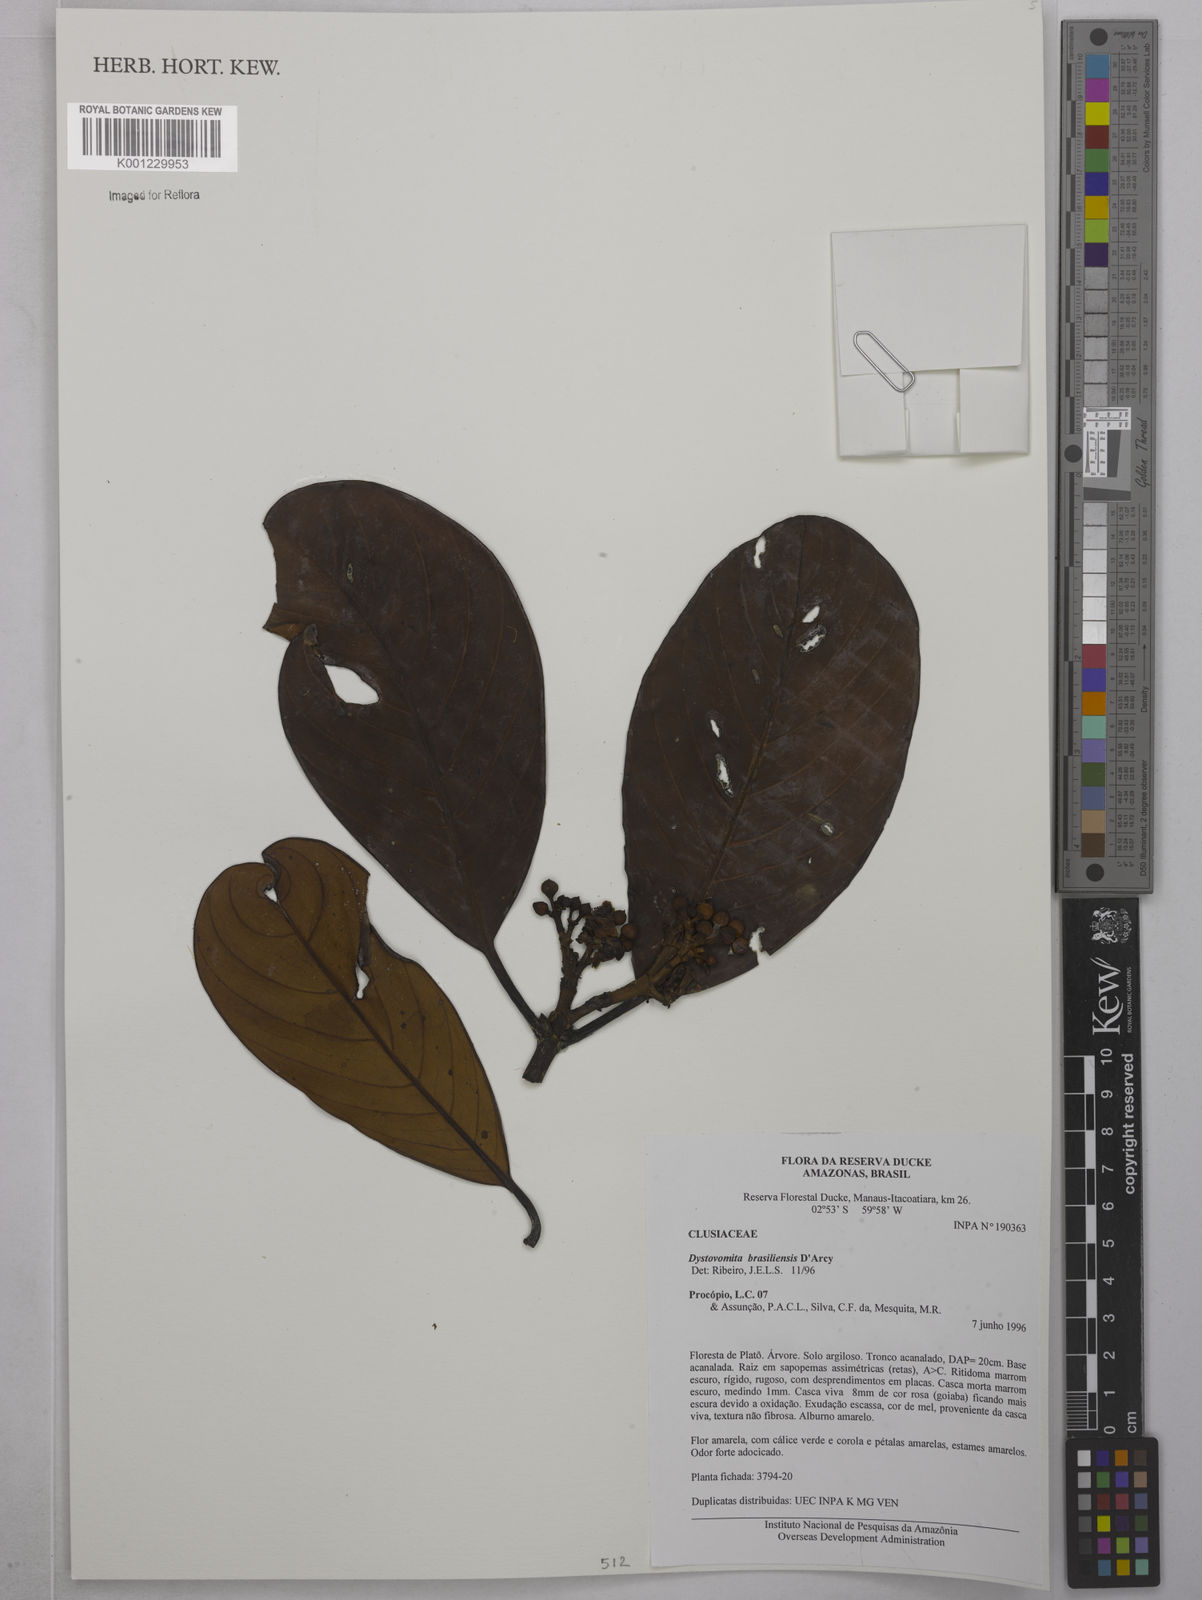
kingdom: Plantae
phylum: Tracheophyta
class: Magnoliopsida
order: Malpighiales
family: Clusiaceae
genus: Tovomita
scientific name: Tovomita hopkinsii
